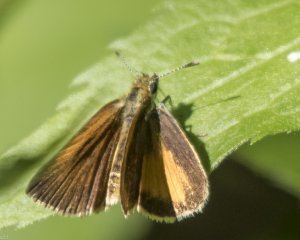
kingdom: Animalia
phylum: Arthropoda
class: Insecta
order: Lepidoptera
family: Hesperiidae
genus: Ancyloxypha
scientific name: Ancyloxypha numitor
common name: Least Skipper
